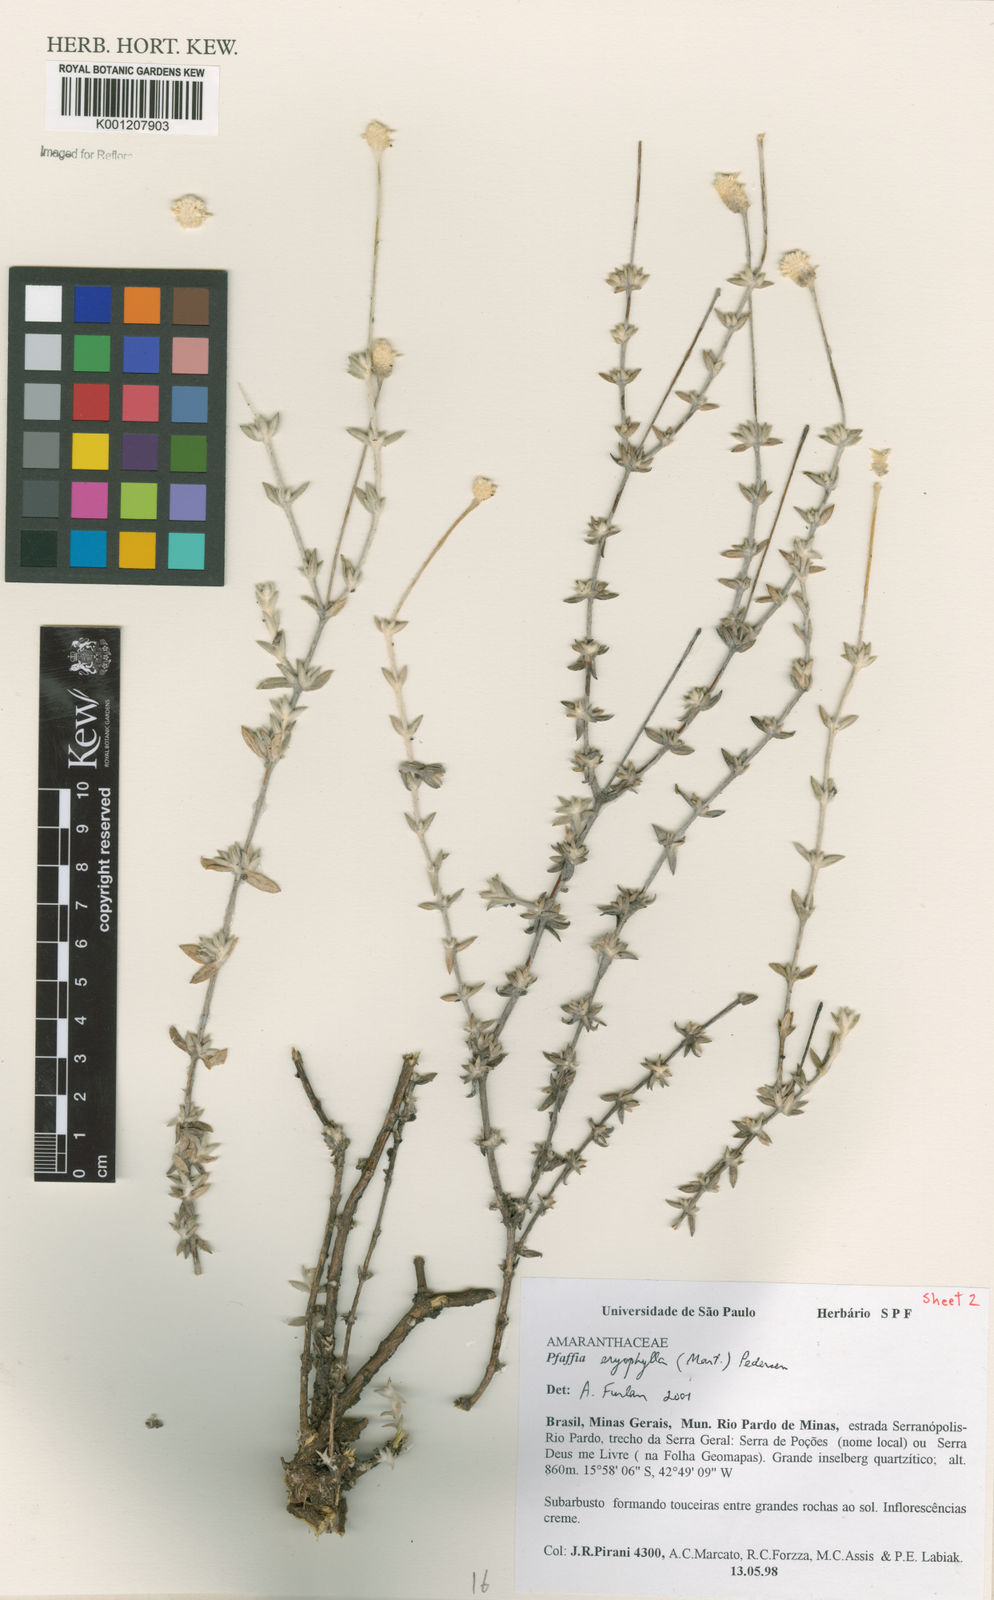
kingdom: Plantae
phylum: Tracheophyta
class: Magnoliopsida
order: Caryophyllales
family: Amaranthaceae
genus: Gomphrena
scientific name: Gomphrena eriophylla
